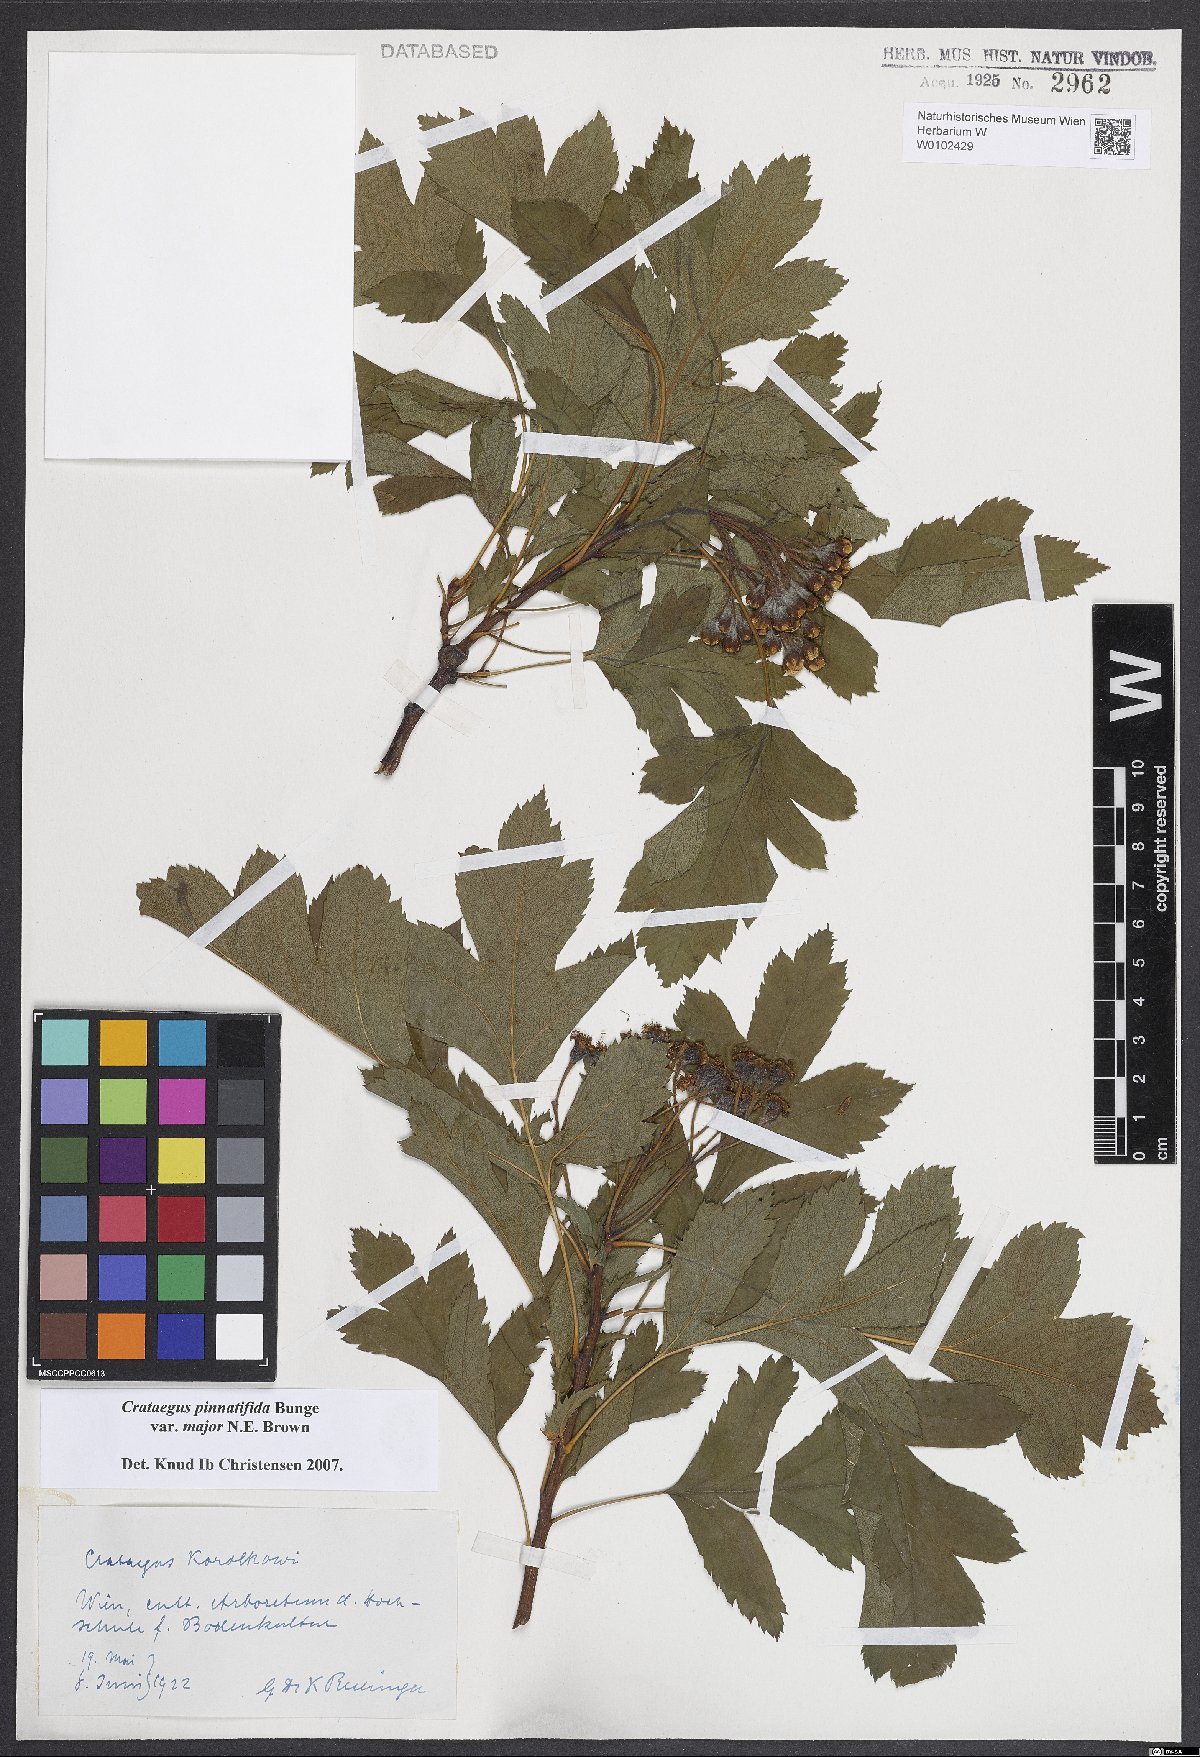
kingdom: Plantae
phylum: Tracheophyta
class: Magnoliopsida
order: Rosales
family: Rosaceae
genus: Crataegus
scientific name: Crataegus pinnatifida
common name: Chinese haw
